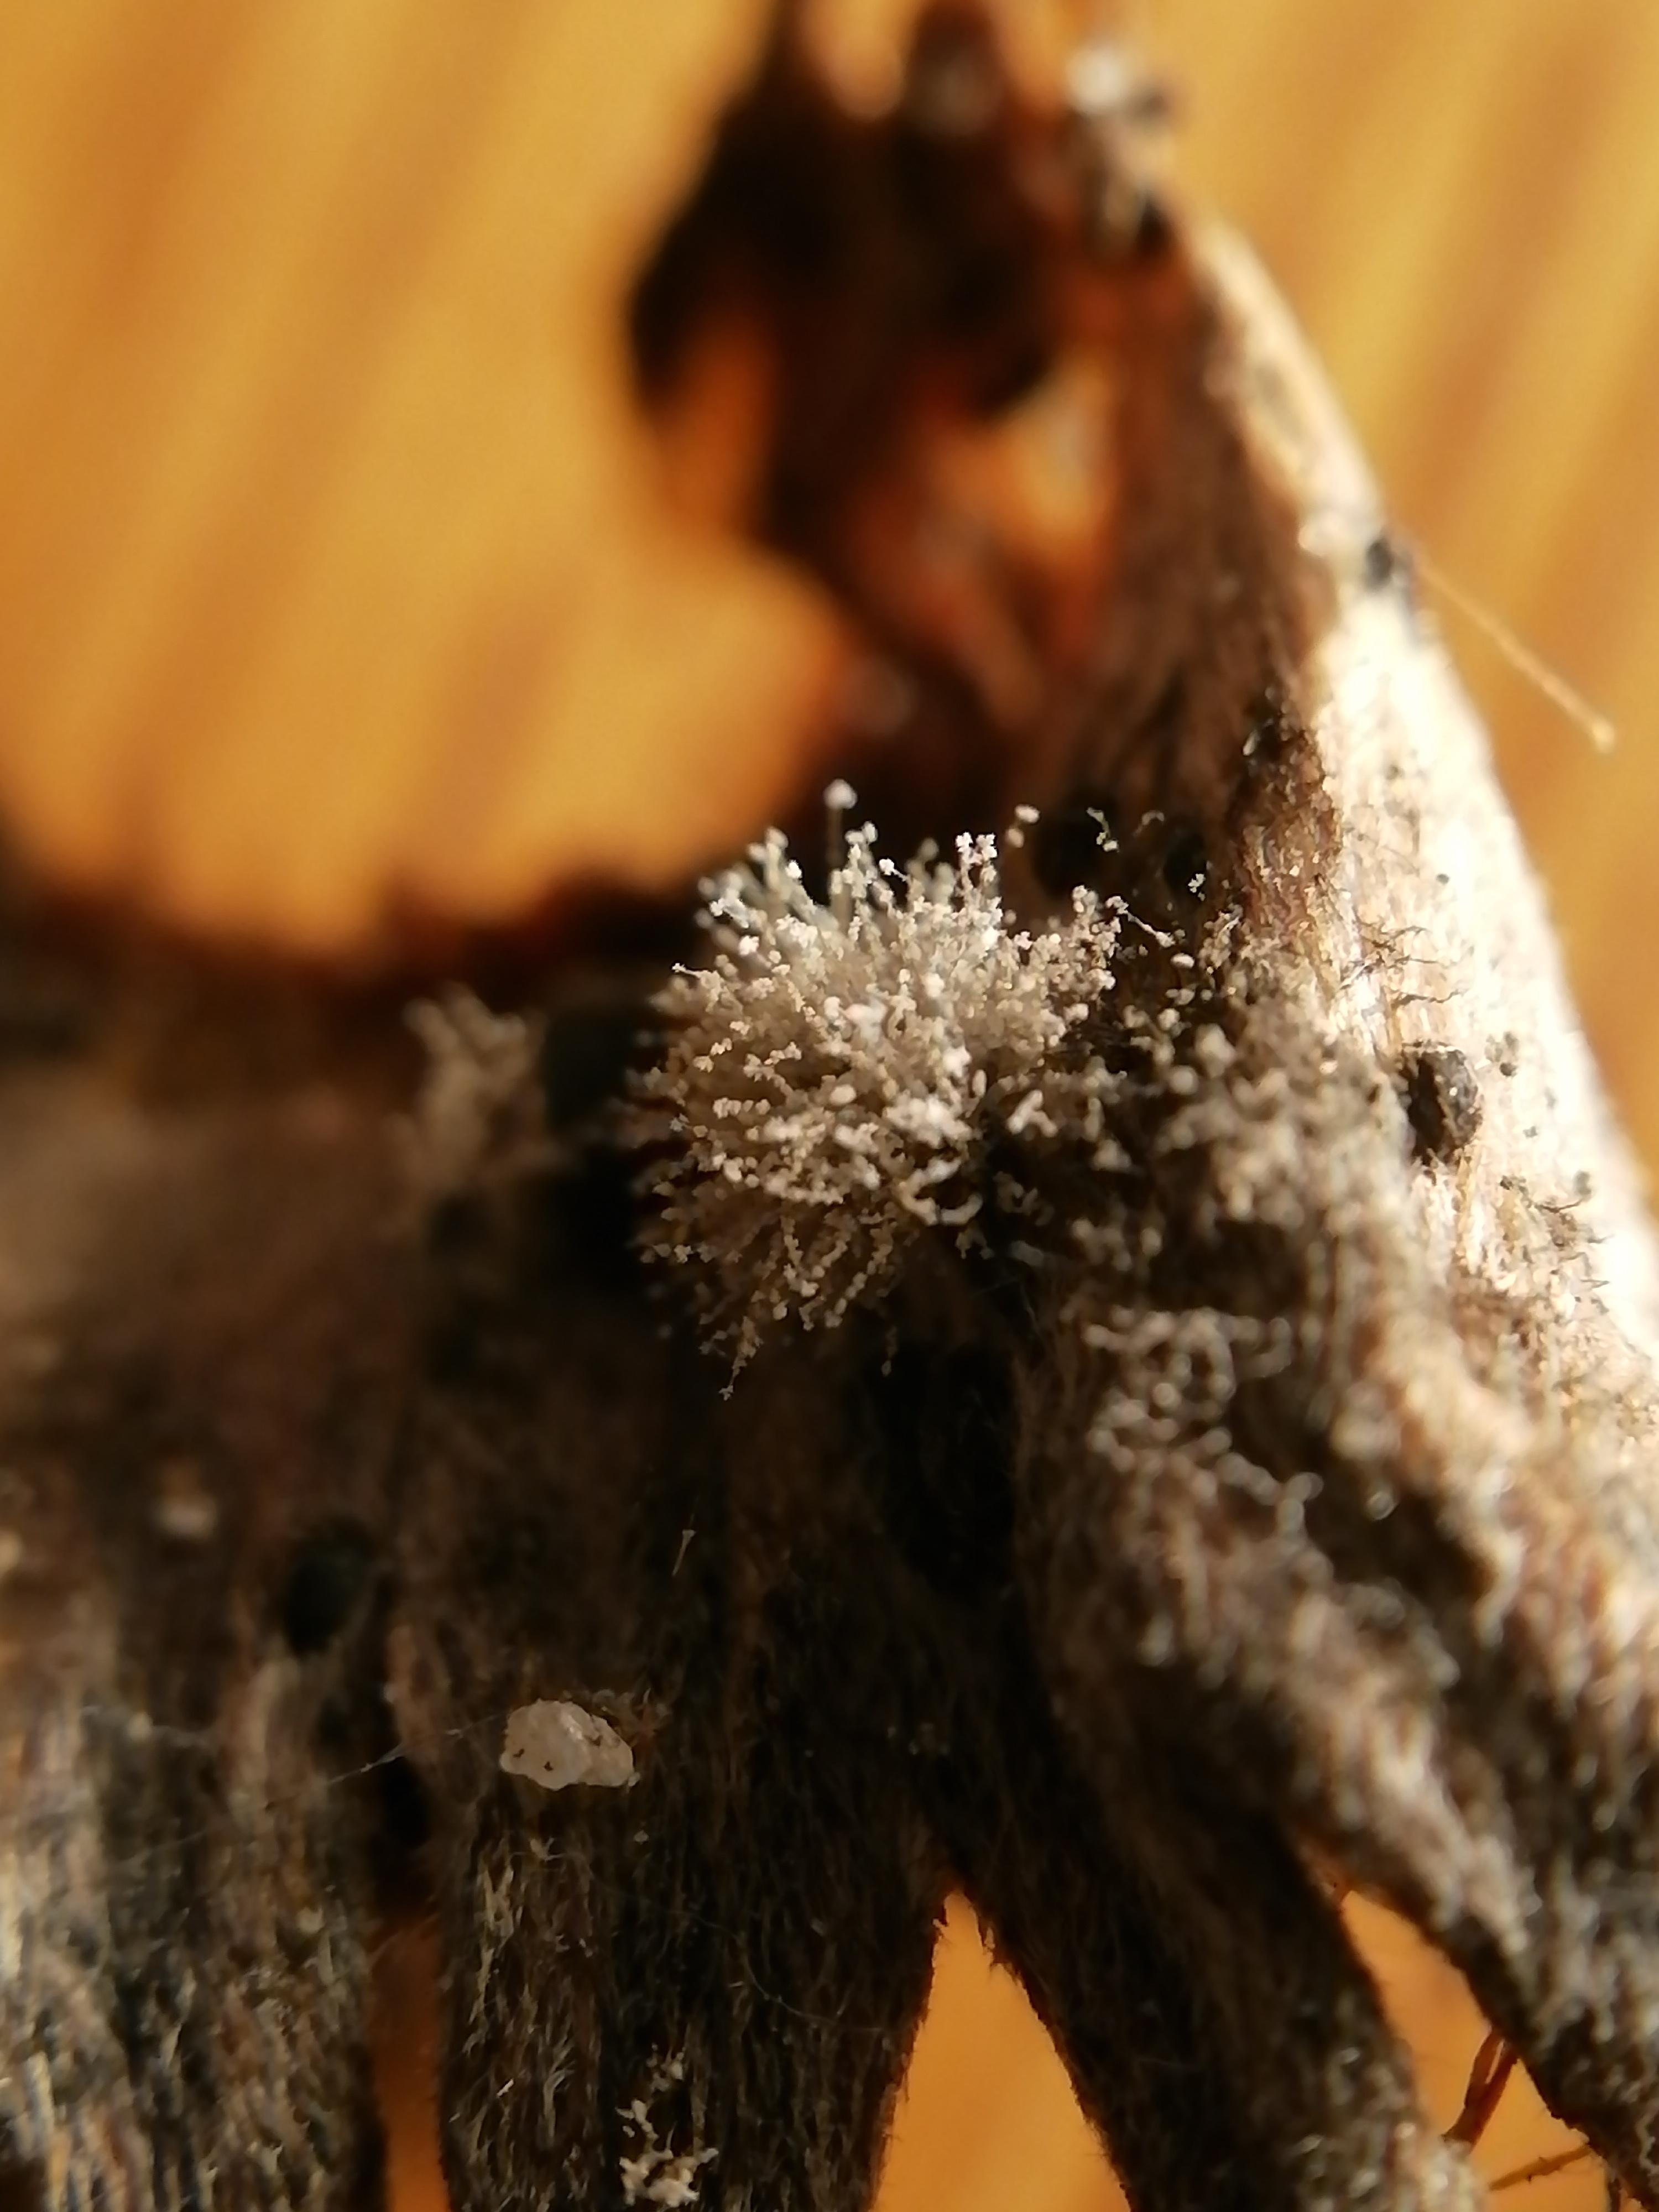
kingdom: Fungi
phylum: Ascomycota
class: Leotiomycetes
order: Helotiales
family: Sclerotiniaceae
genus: Botrytis
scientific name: Botrytis
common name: gråskimmel
